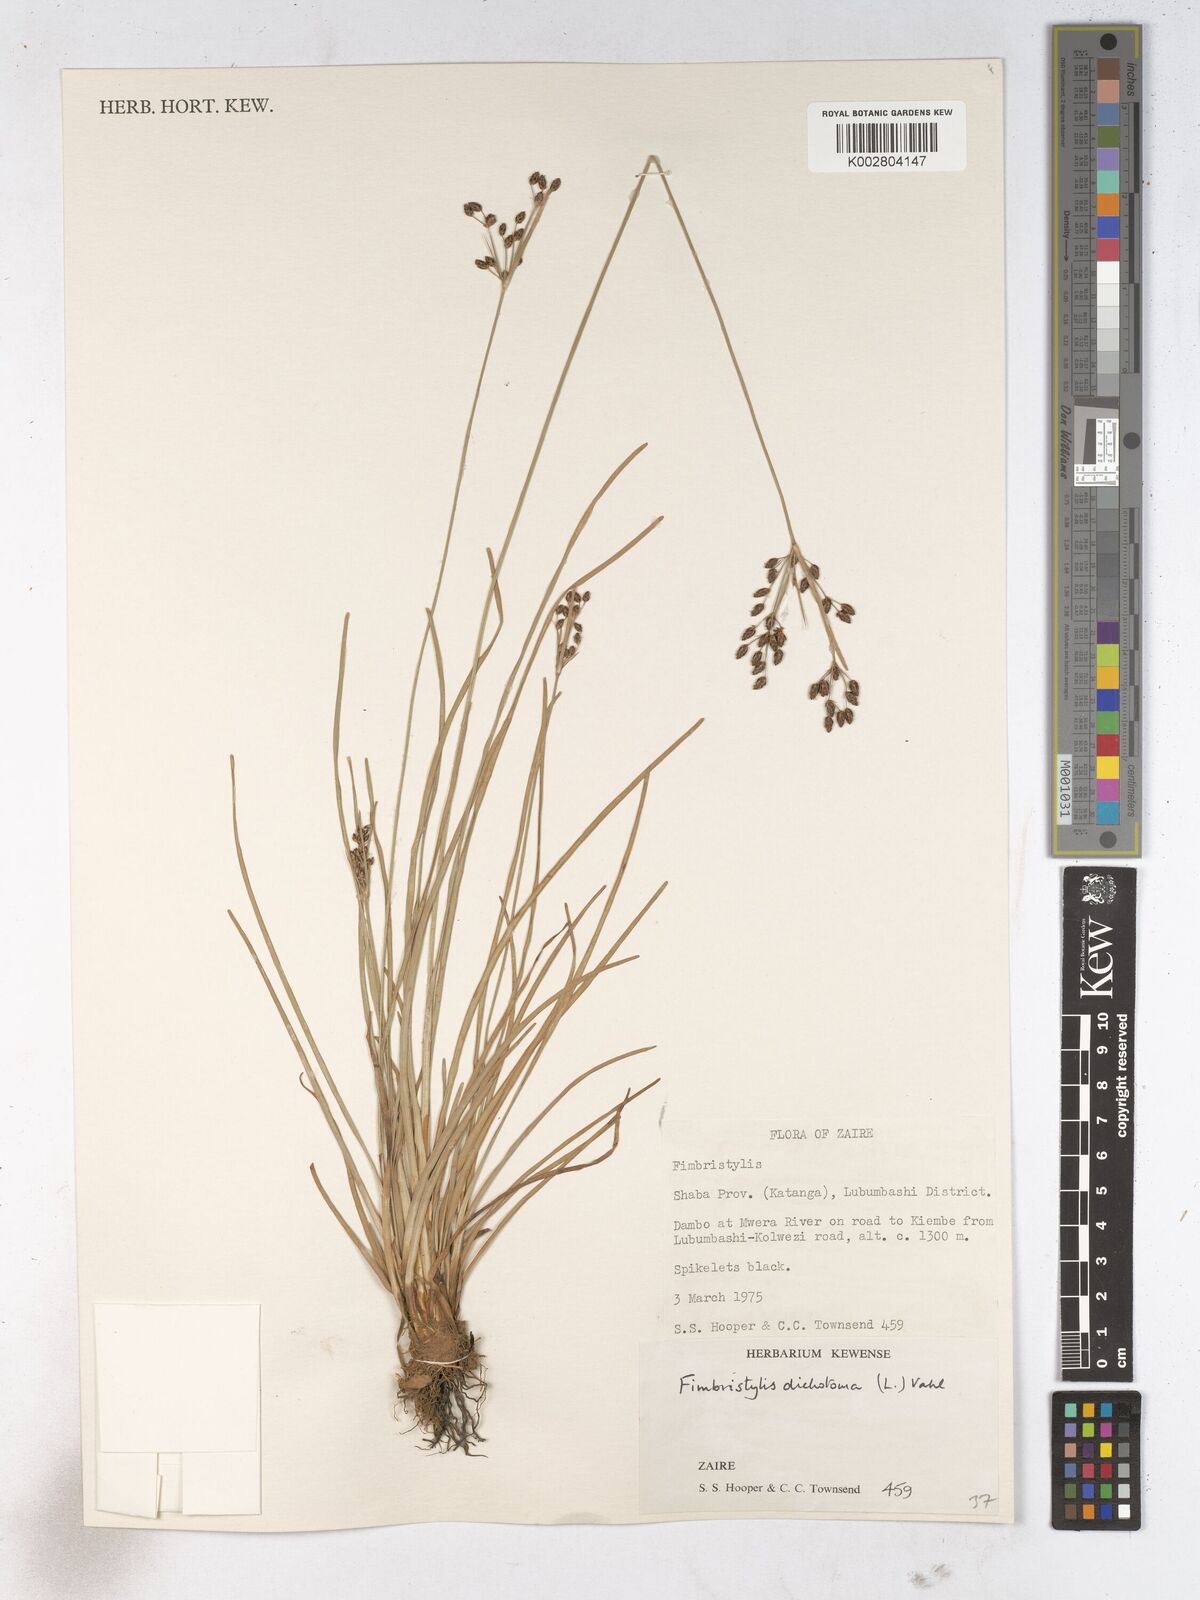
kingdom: Plantae
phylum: Tracheophyta
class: Liliopsida
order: Poales
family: Cyperaceae
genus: Fimbristylis
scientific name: Fimbristylis dichotoma
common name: Forked fimbry
